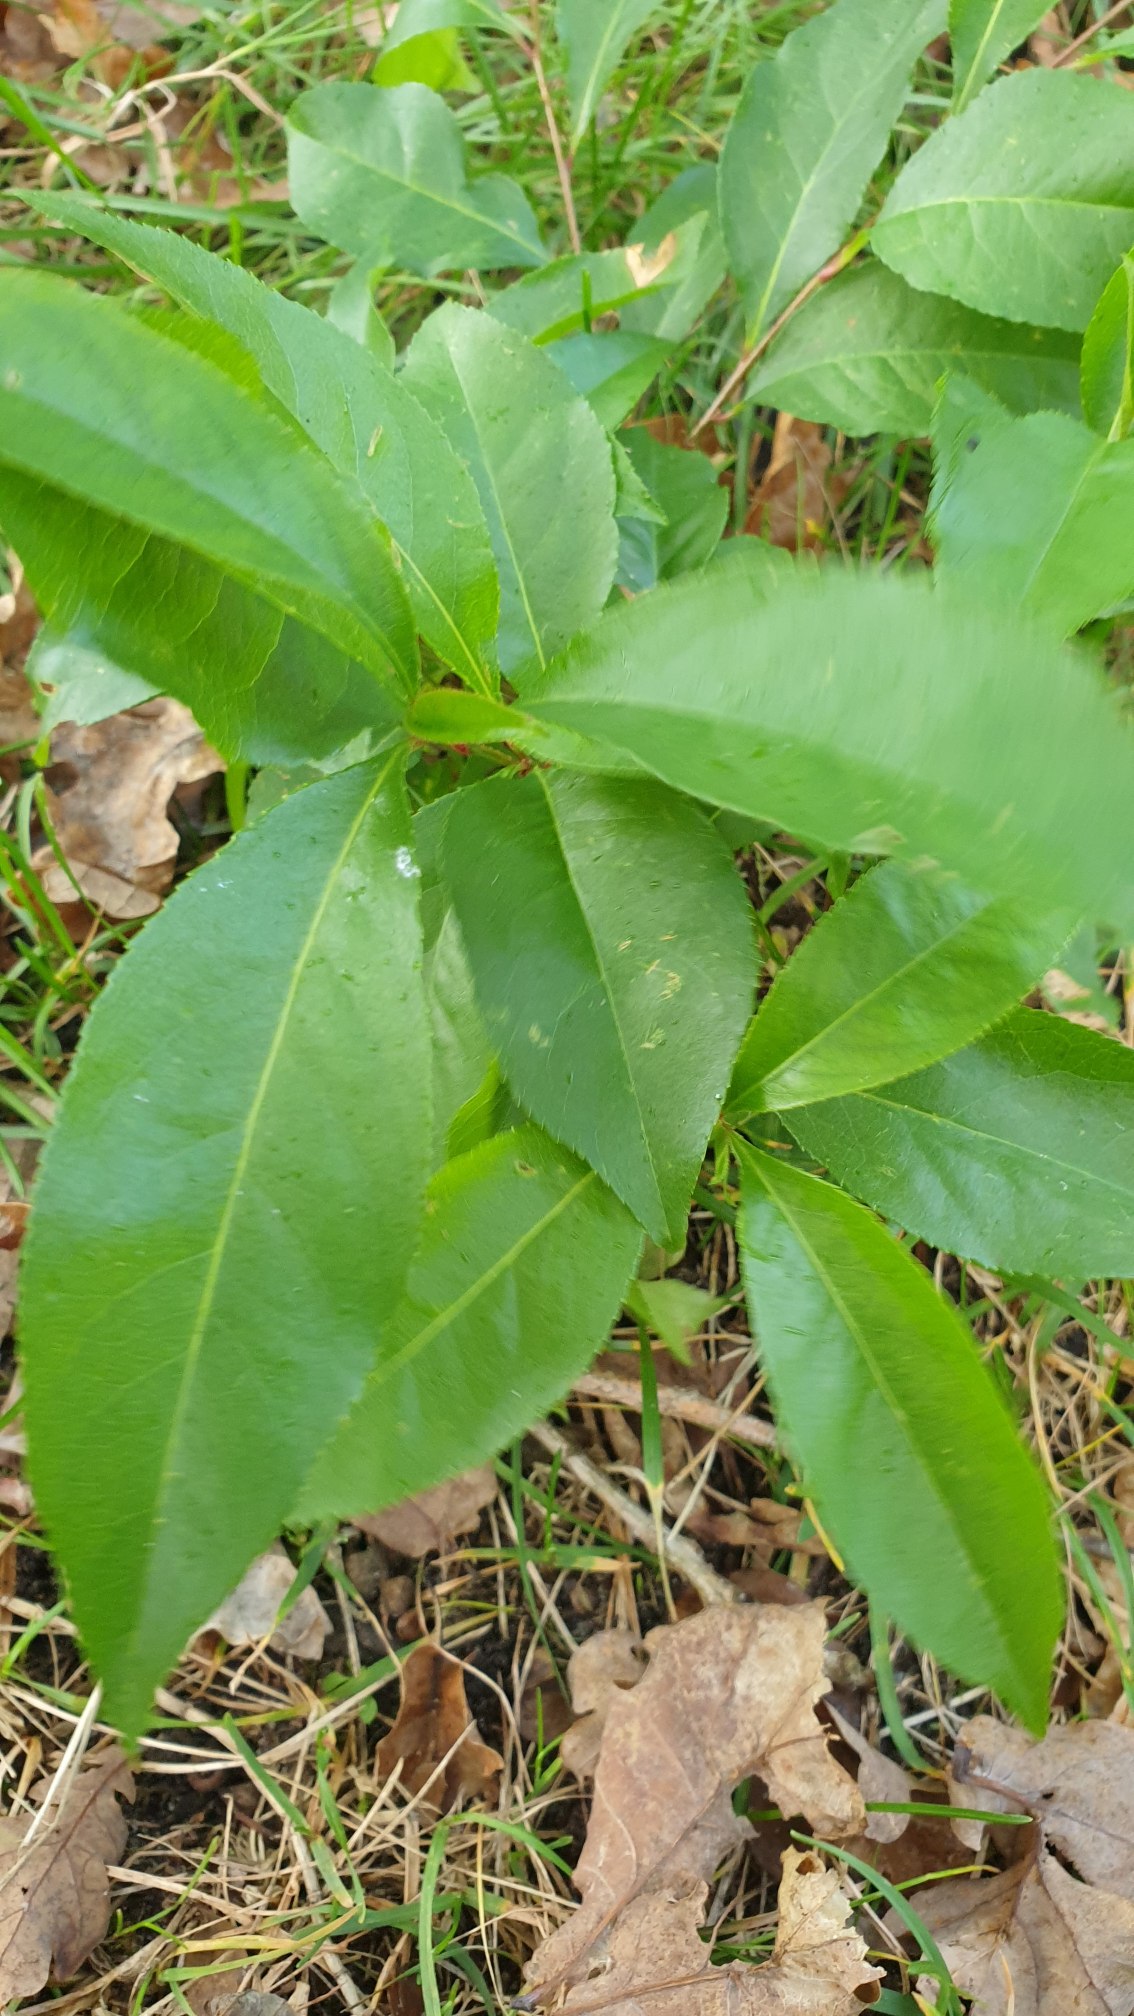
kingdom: Plantae
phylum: Tracheophyta
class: Magnoliopsida
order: Rosales
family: Rosaceae
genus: Prunus
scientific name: Prunus serotina
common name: Glansbladet hæg
